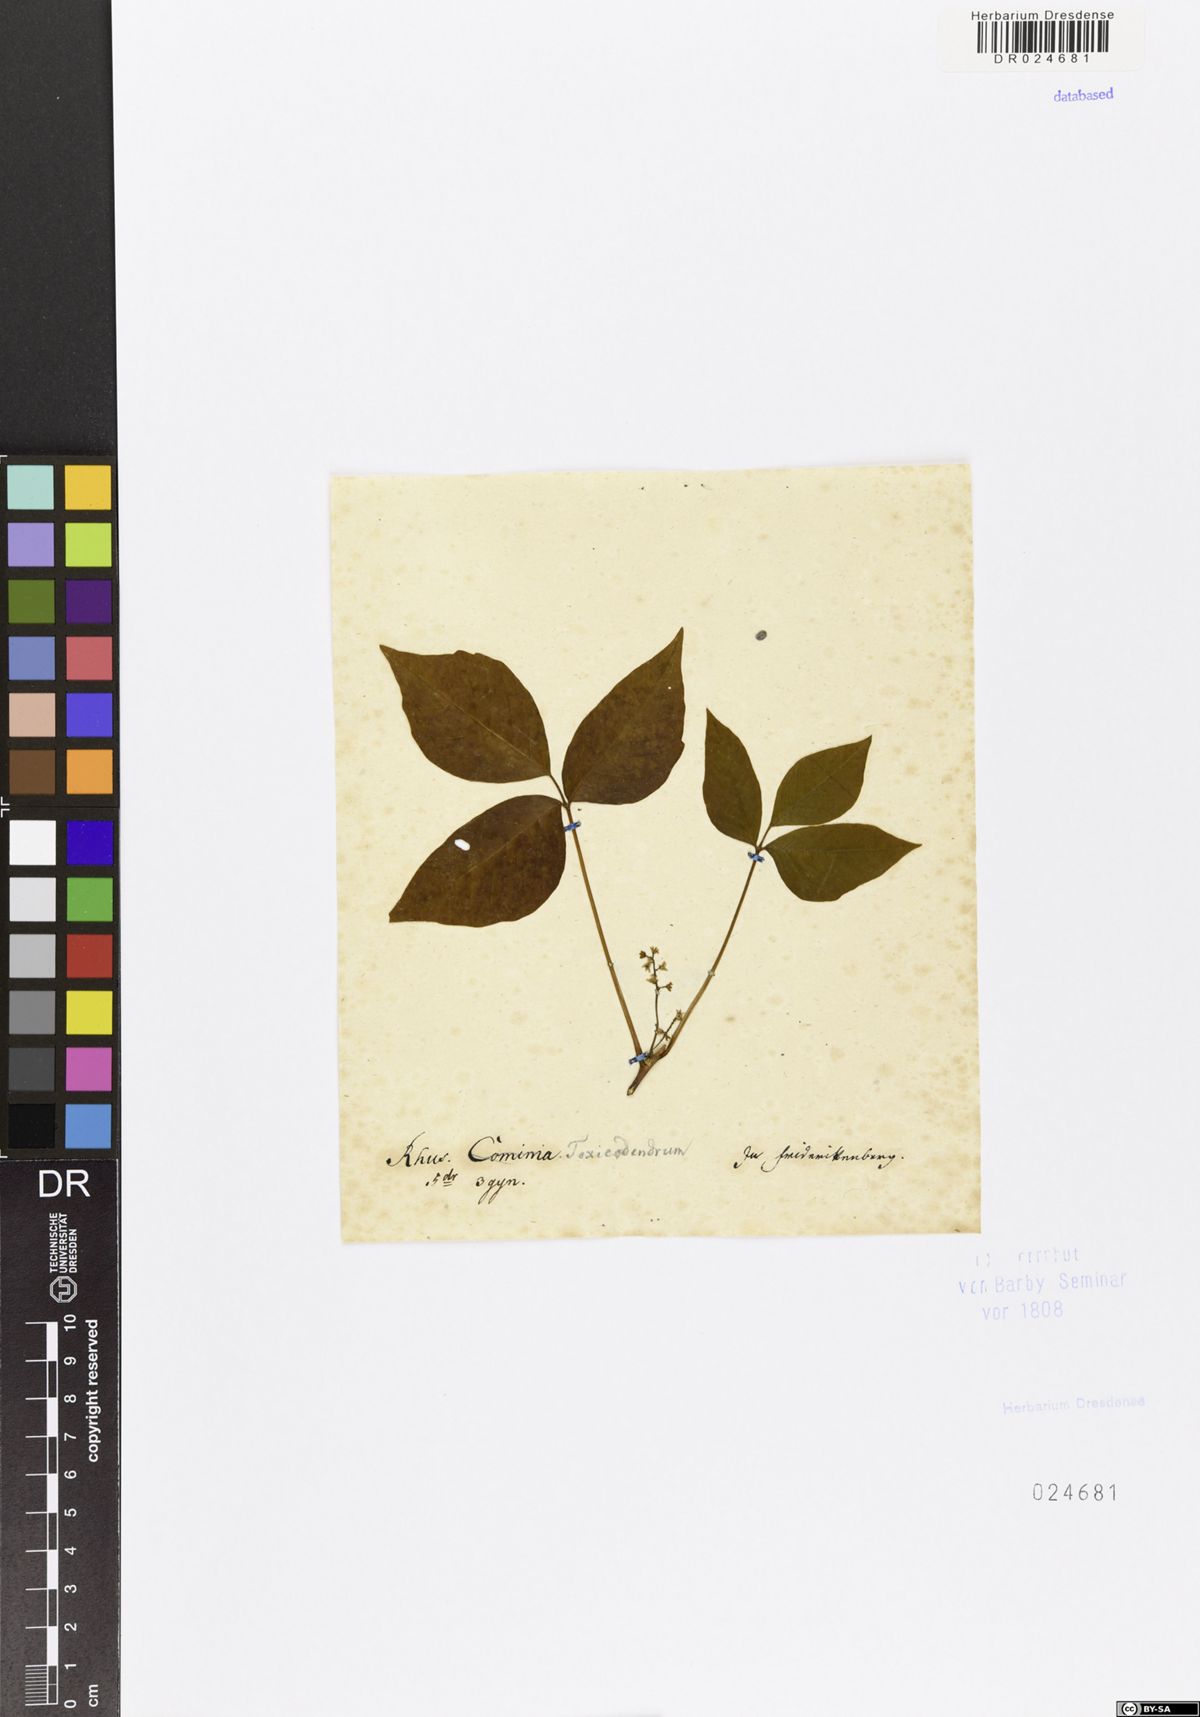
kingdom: Plantae
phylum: Tracheophyta
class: Magnoliopsida
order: Sapindales
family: Anacardiaceae
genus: Toxicodendron
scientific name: Toxicodendron pubescens
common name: Eastern poison-oak
